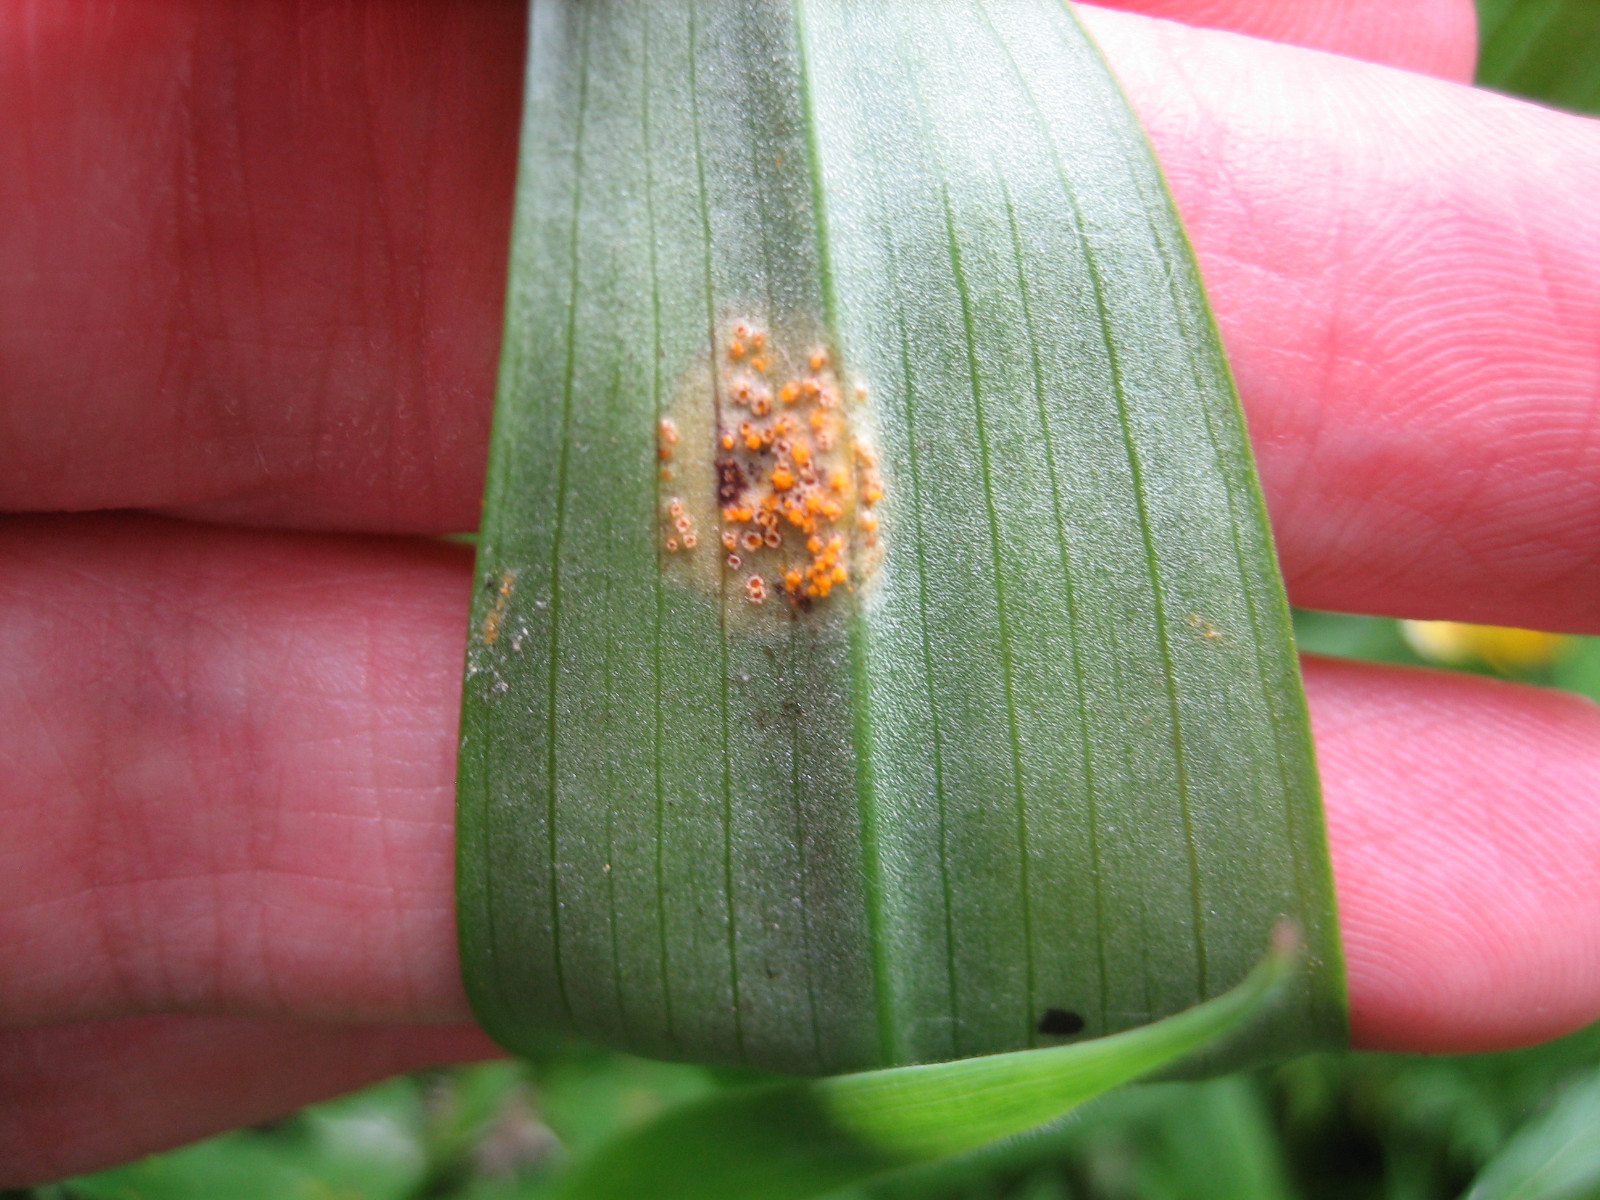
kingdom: Fungi
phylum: Basidiomycota
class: Pucciniomycetes
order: Pucciniales
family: Pucciniaceae
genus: Puccinia
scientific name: Puccinia sessilis
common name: Arum rust
